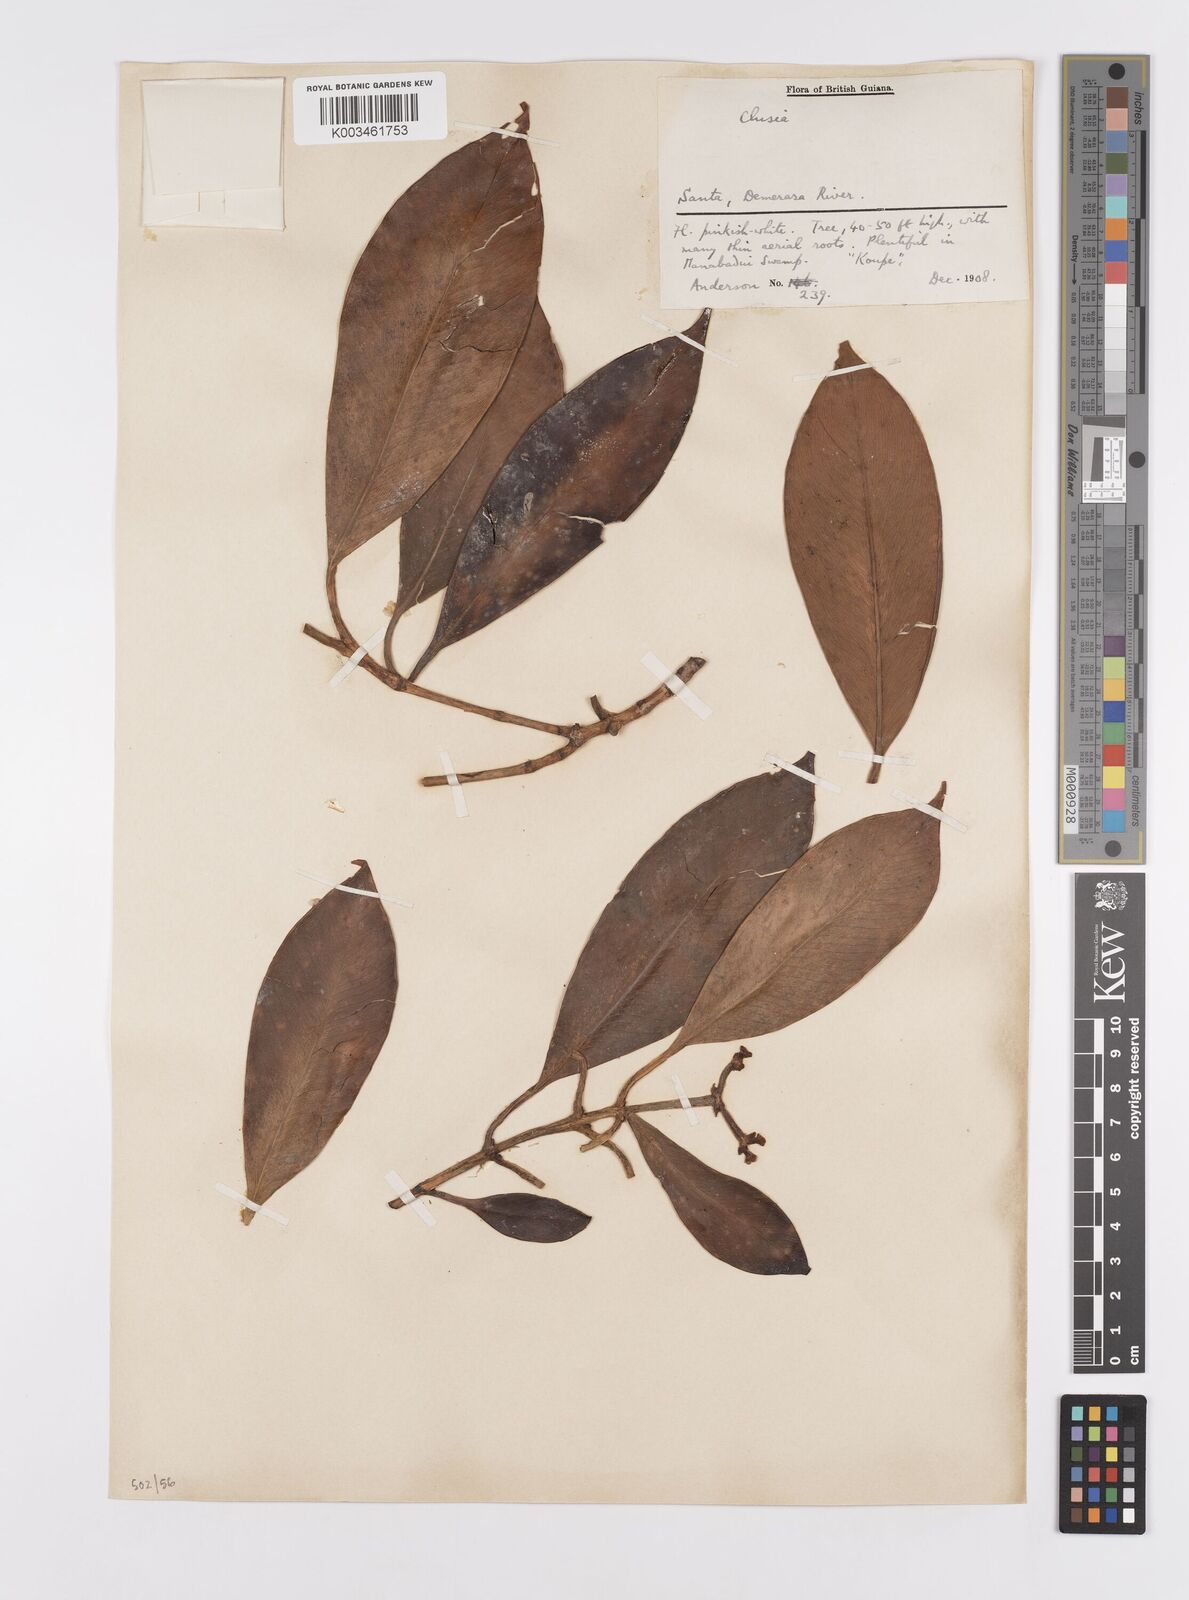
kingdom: Plantae
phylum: Tracheophyta
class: Magnoliopsida
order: Malpighiales
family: Clusiaceae
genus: Clusia
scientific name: Clusia fockeana
